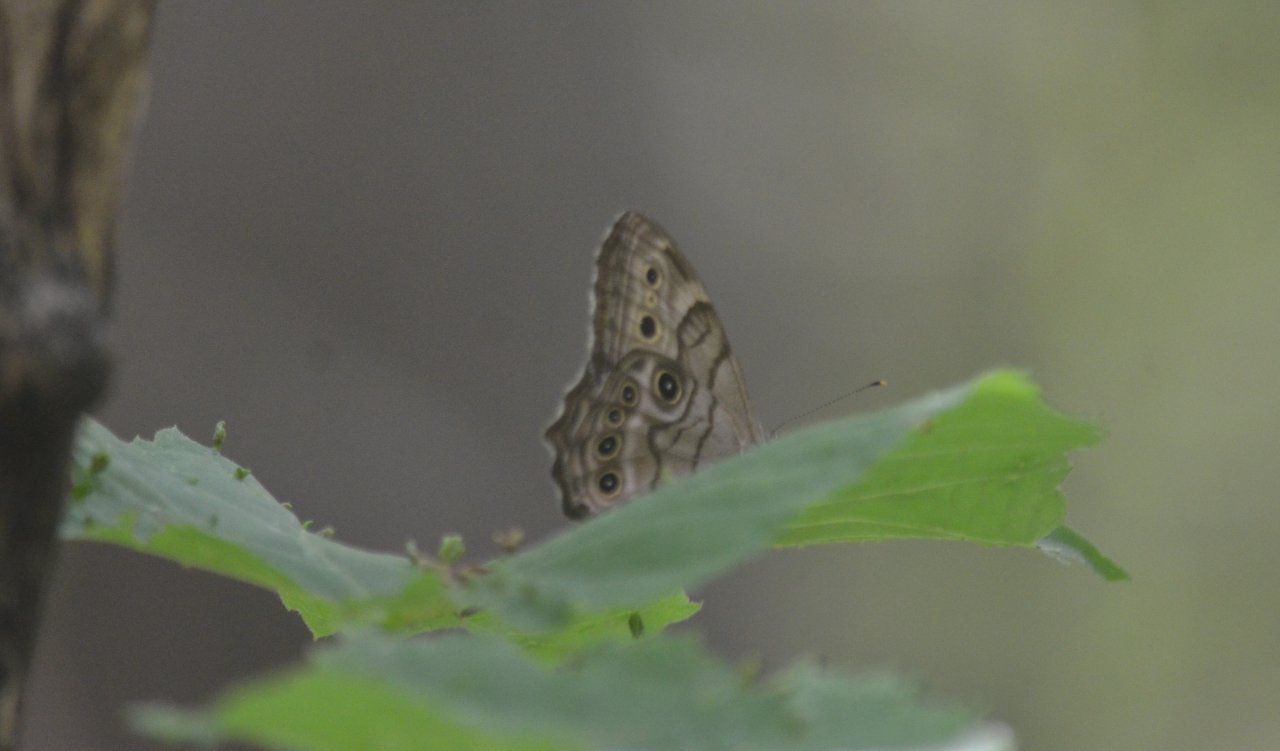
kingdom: Animalia
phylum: Arthropoda
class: Insecta
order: Lepidoptera
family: Nymphalidae
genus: Lethe
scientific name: Lethe anthedon
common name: Northern Pearly-Eye
